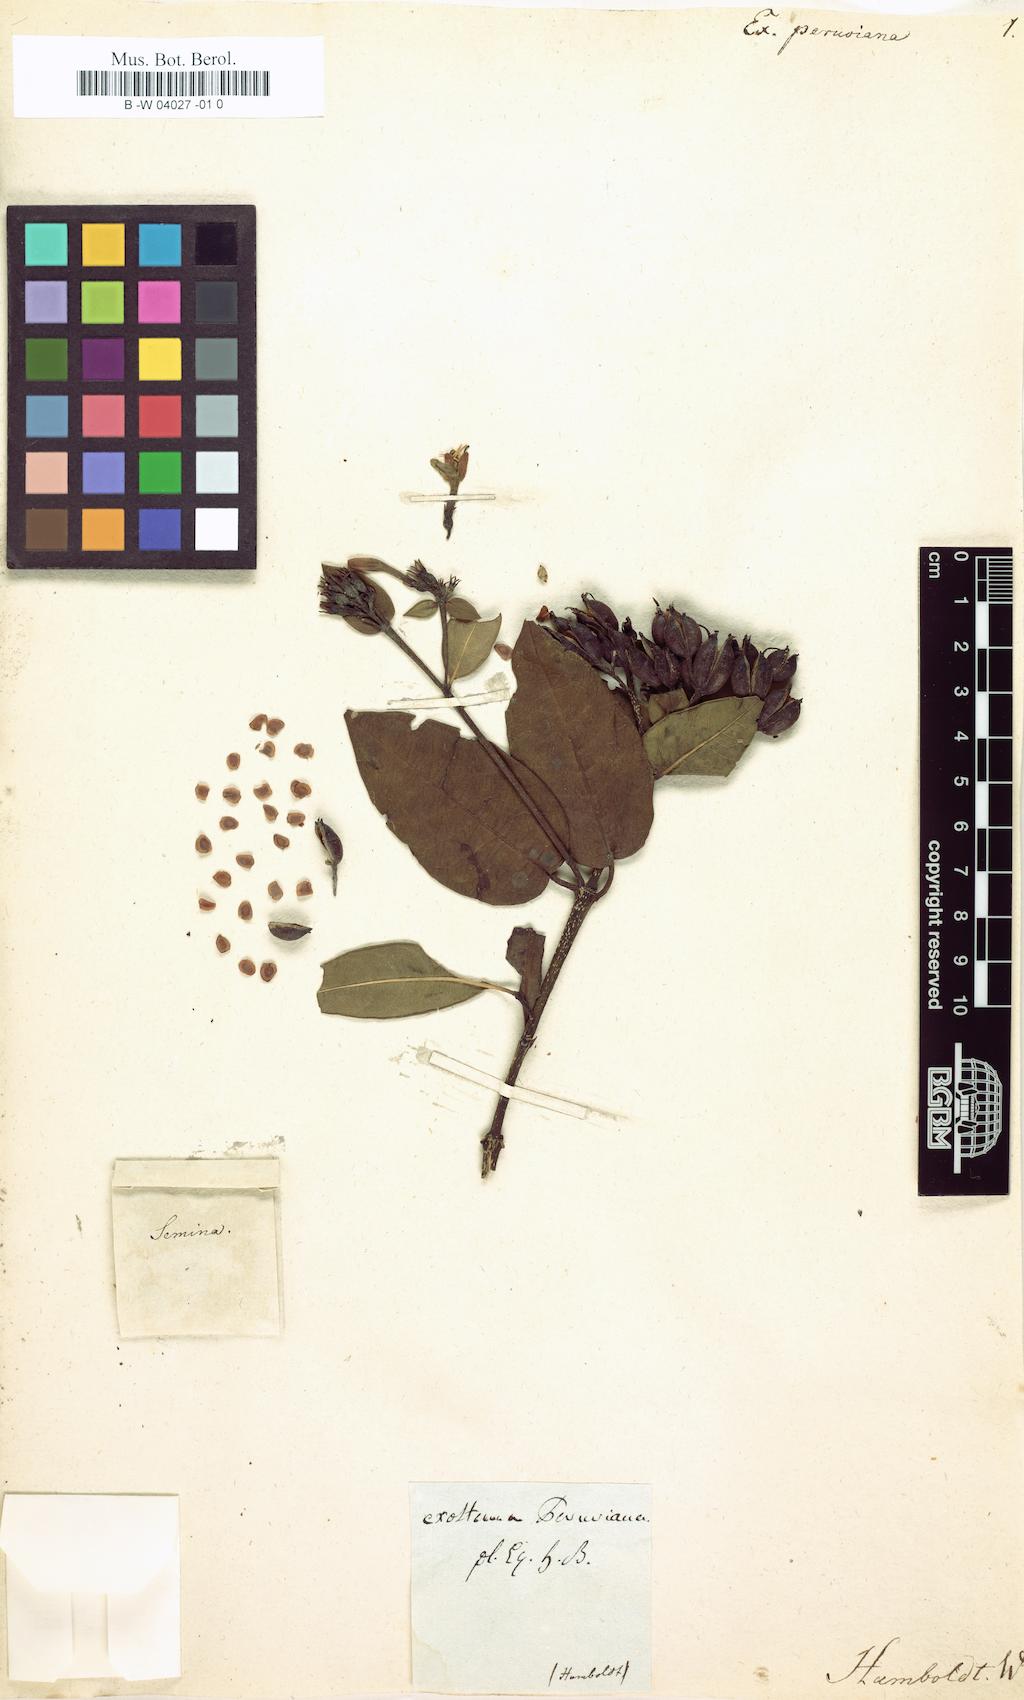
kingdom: Plantae
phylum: Tracheophyta
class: Magnoliopsida
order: Gentianales
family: Rubiaceae
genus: Motleyothamnus
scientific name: Motleyothamnus corymbosus
